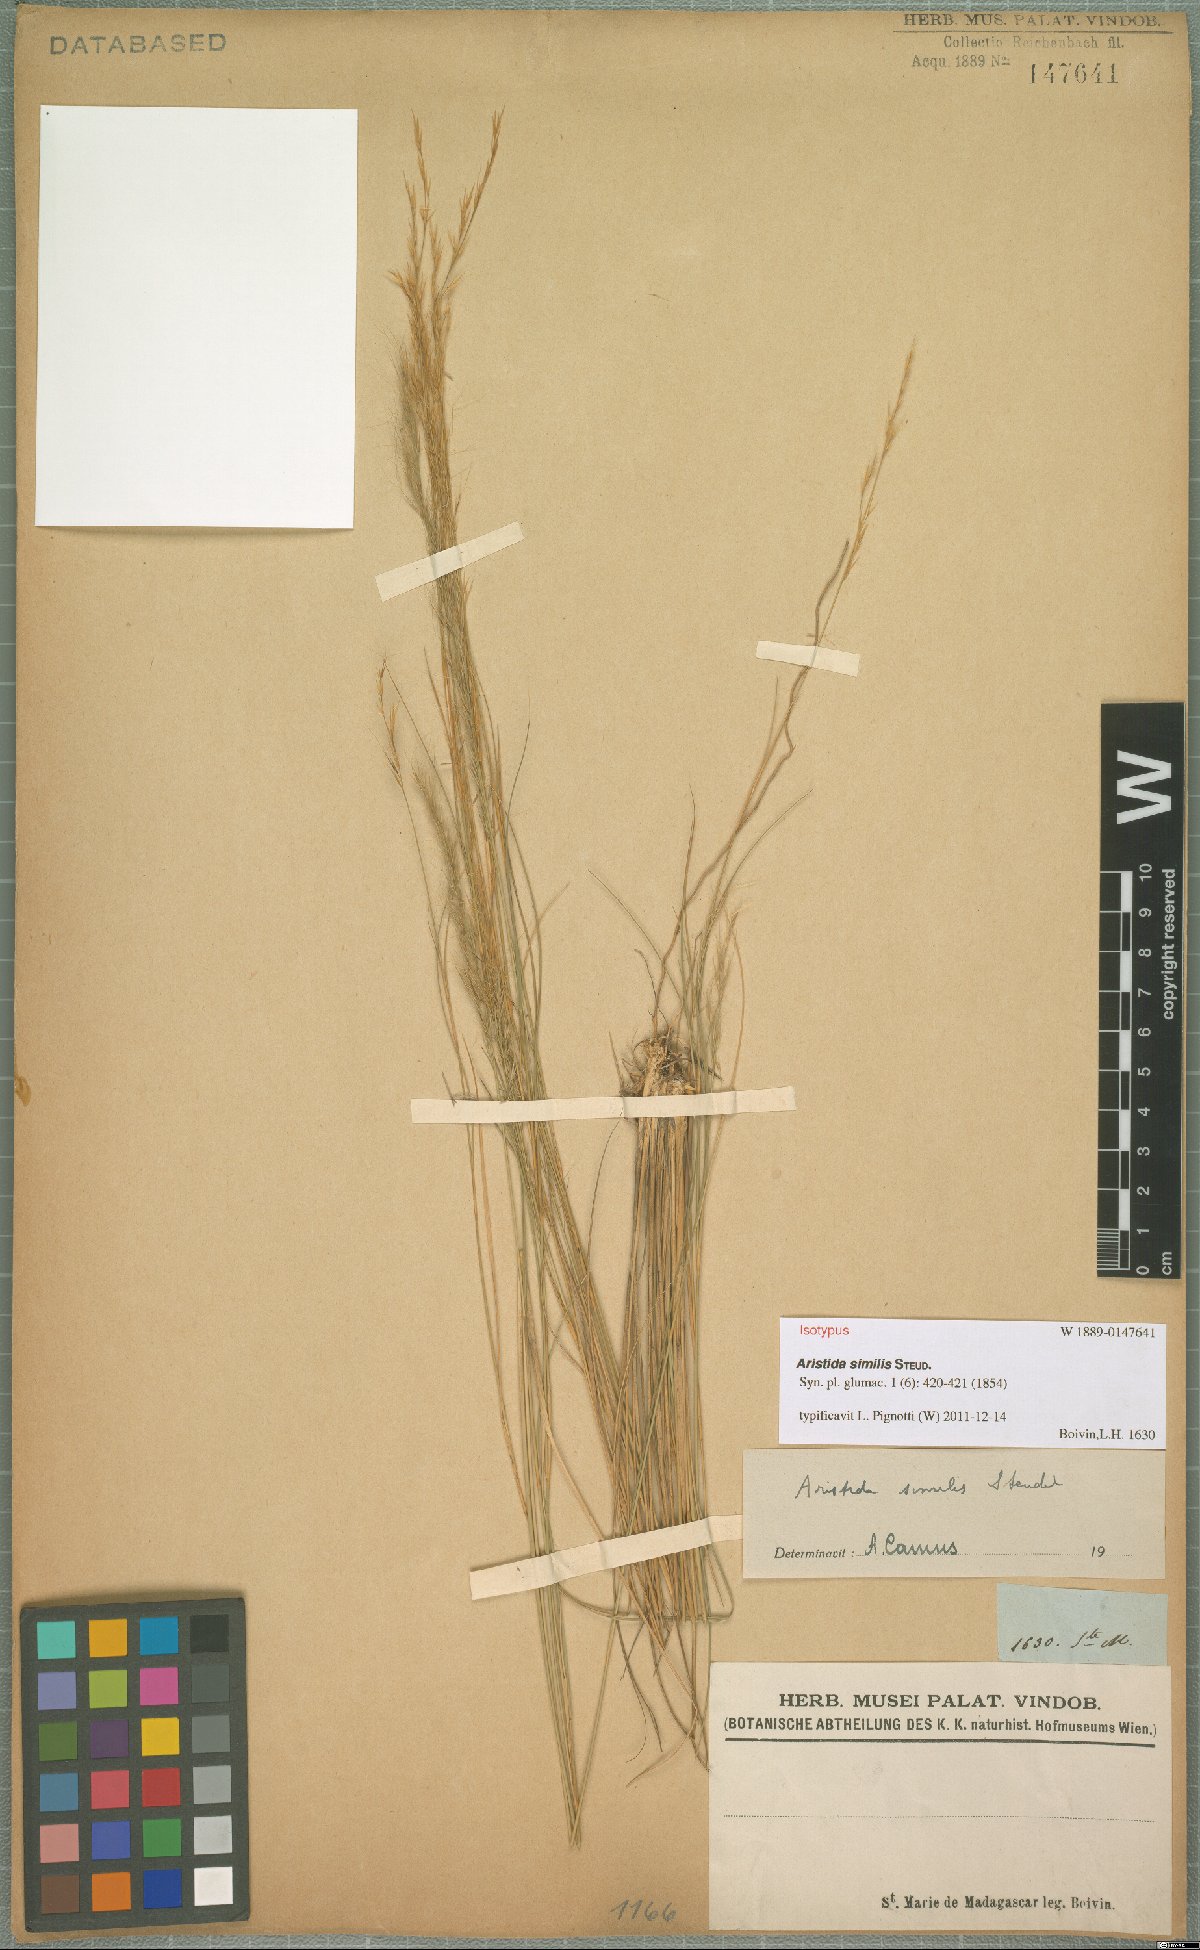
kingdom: Plantae
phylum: Tracheophyta
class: Liliopsida
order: Poales
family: Poaceae
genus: Aristida
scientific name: Aristida similis
